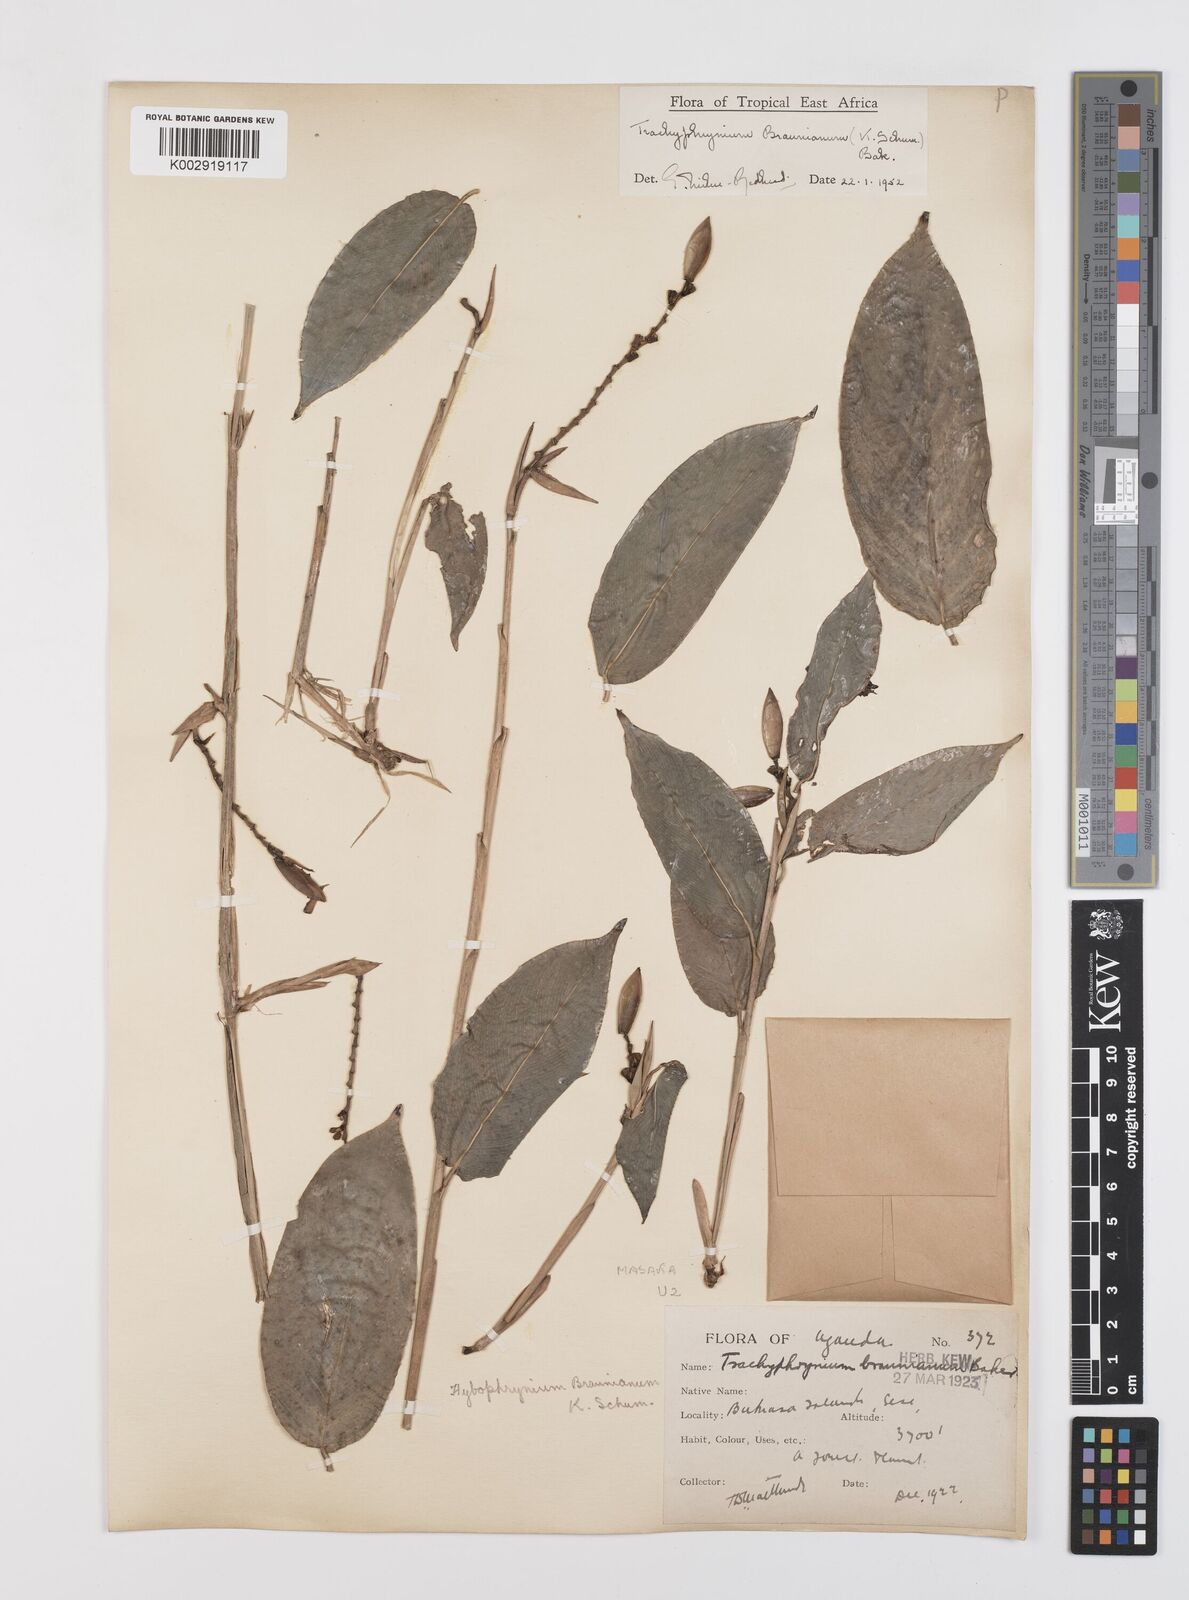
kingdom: Plantae
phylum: Tracheophyta
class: Liliopsida
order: Zingiberales
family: Marantaceae
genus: Trachyphrynium
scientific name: Trachyphrynium braunianum
